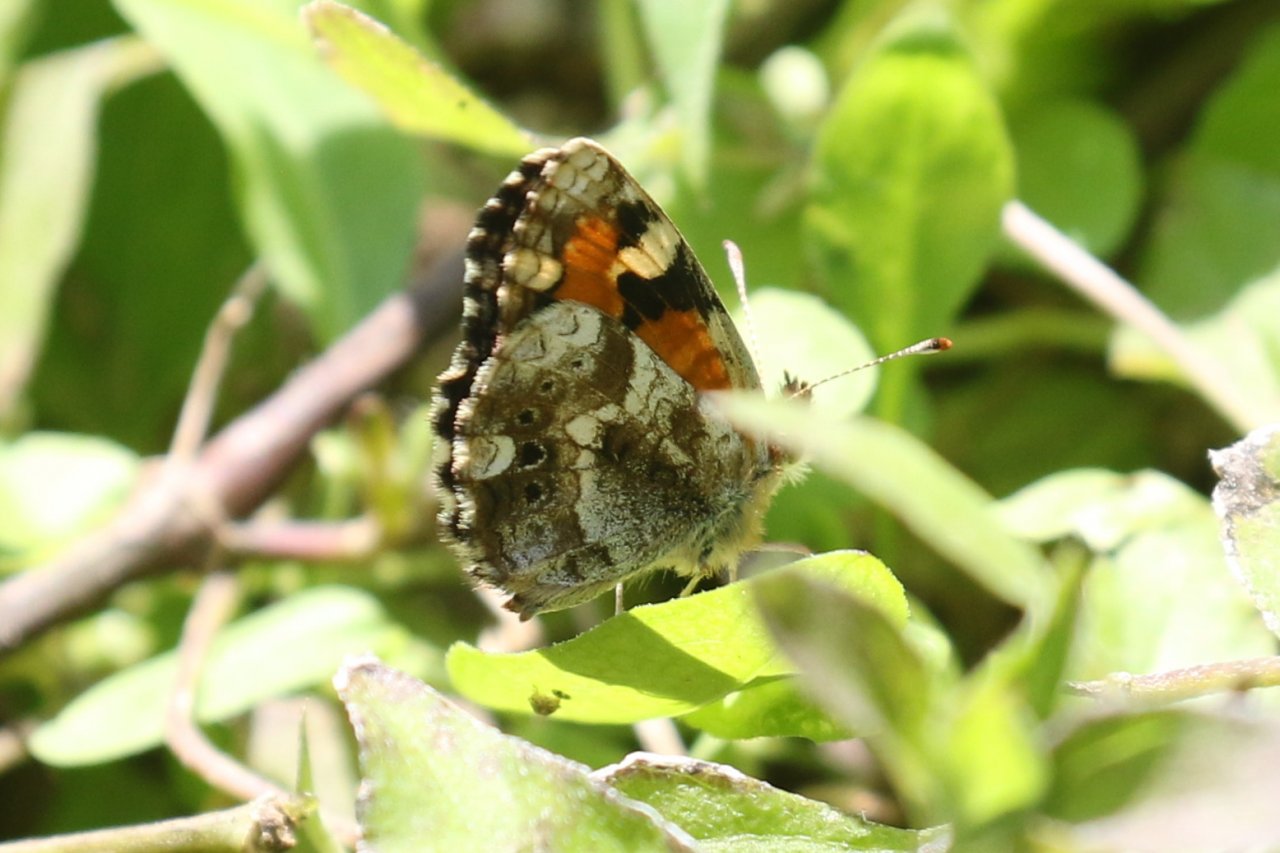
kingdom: Animalia
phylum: Arthropoda
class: Insecta
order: Lepidoptera
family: Nymphalidae
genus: Phyciodes
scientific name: Phyciodes phaon
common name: Phaon Crescent
